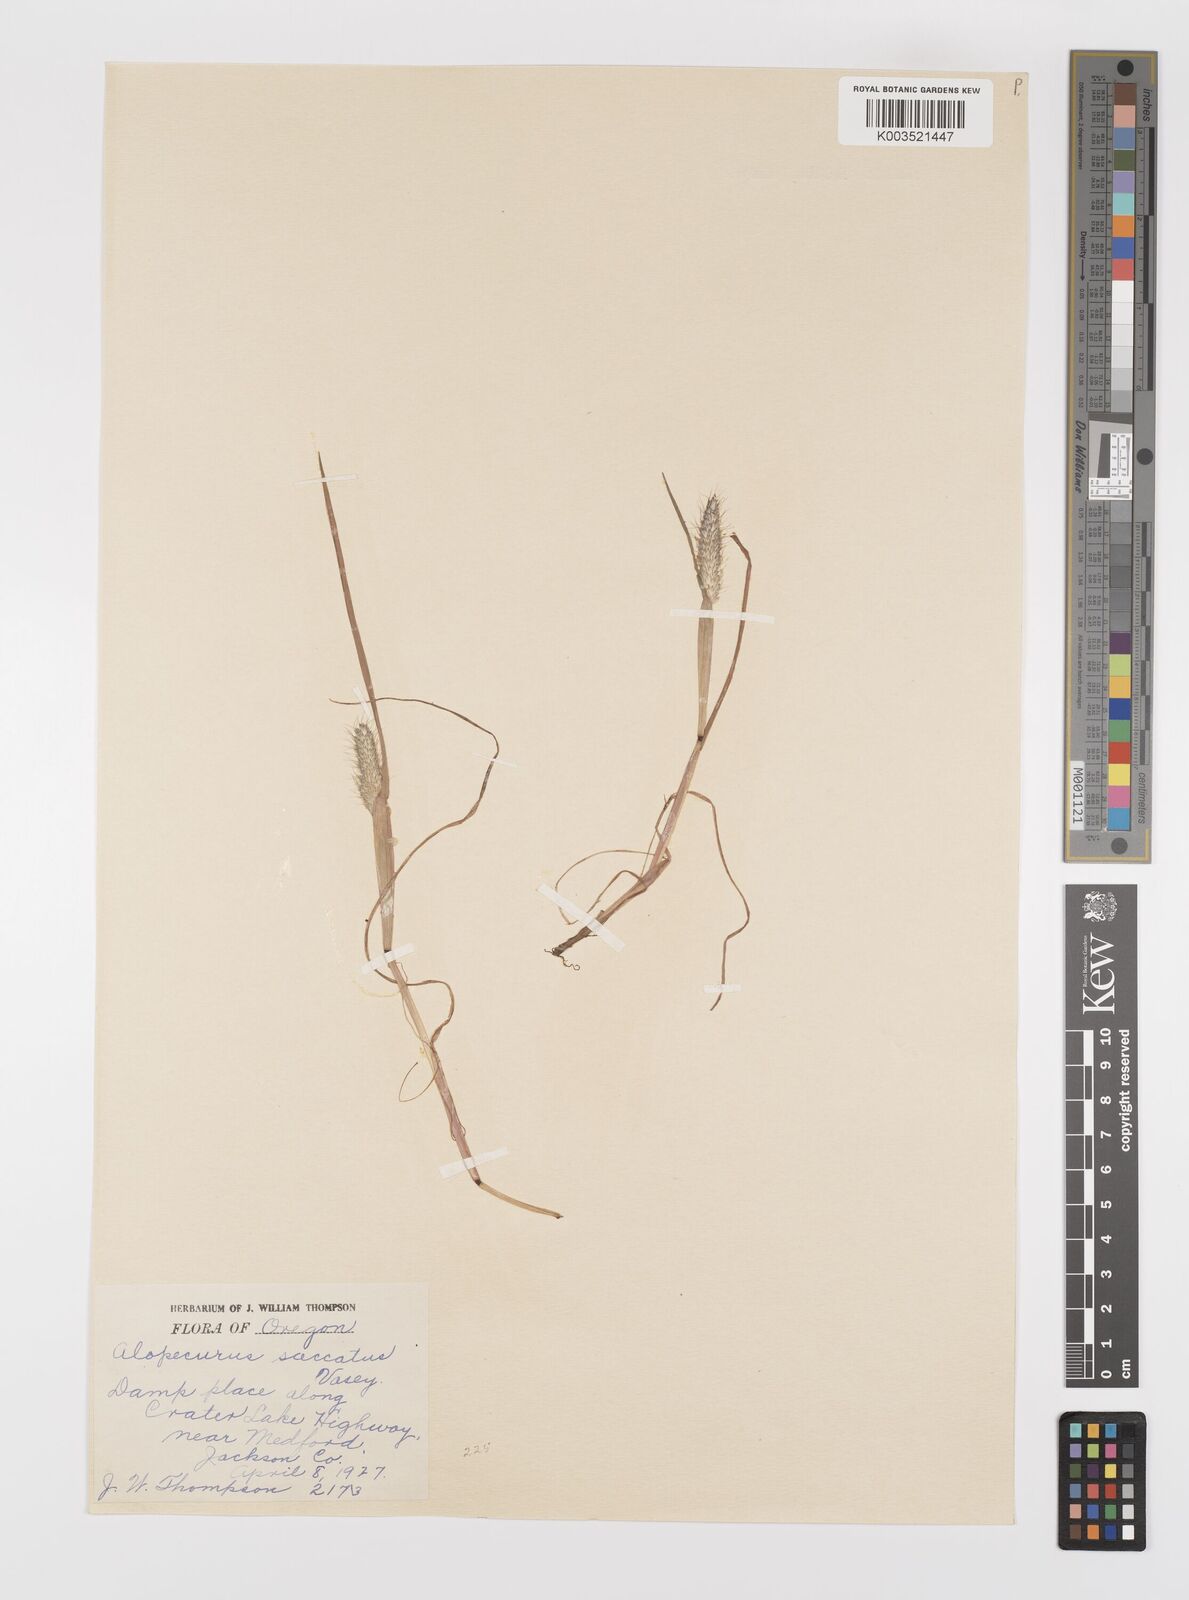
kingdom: Plantae
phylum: Tracheophyta
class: Liliopsida
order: Poales
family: Poaceae
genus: Alopecurus
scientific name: Alopecurus saccatus
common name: Pacific foxtail
